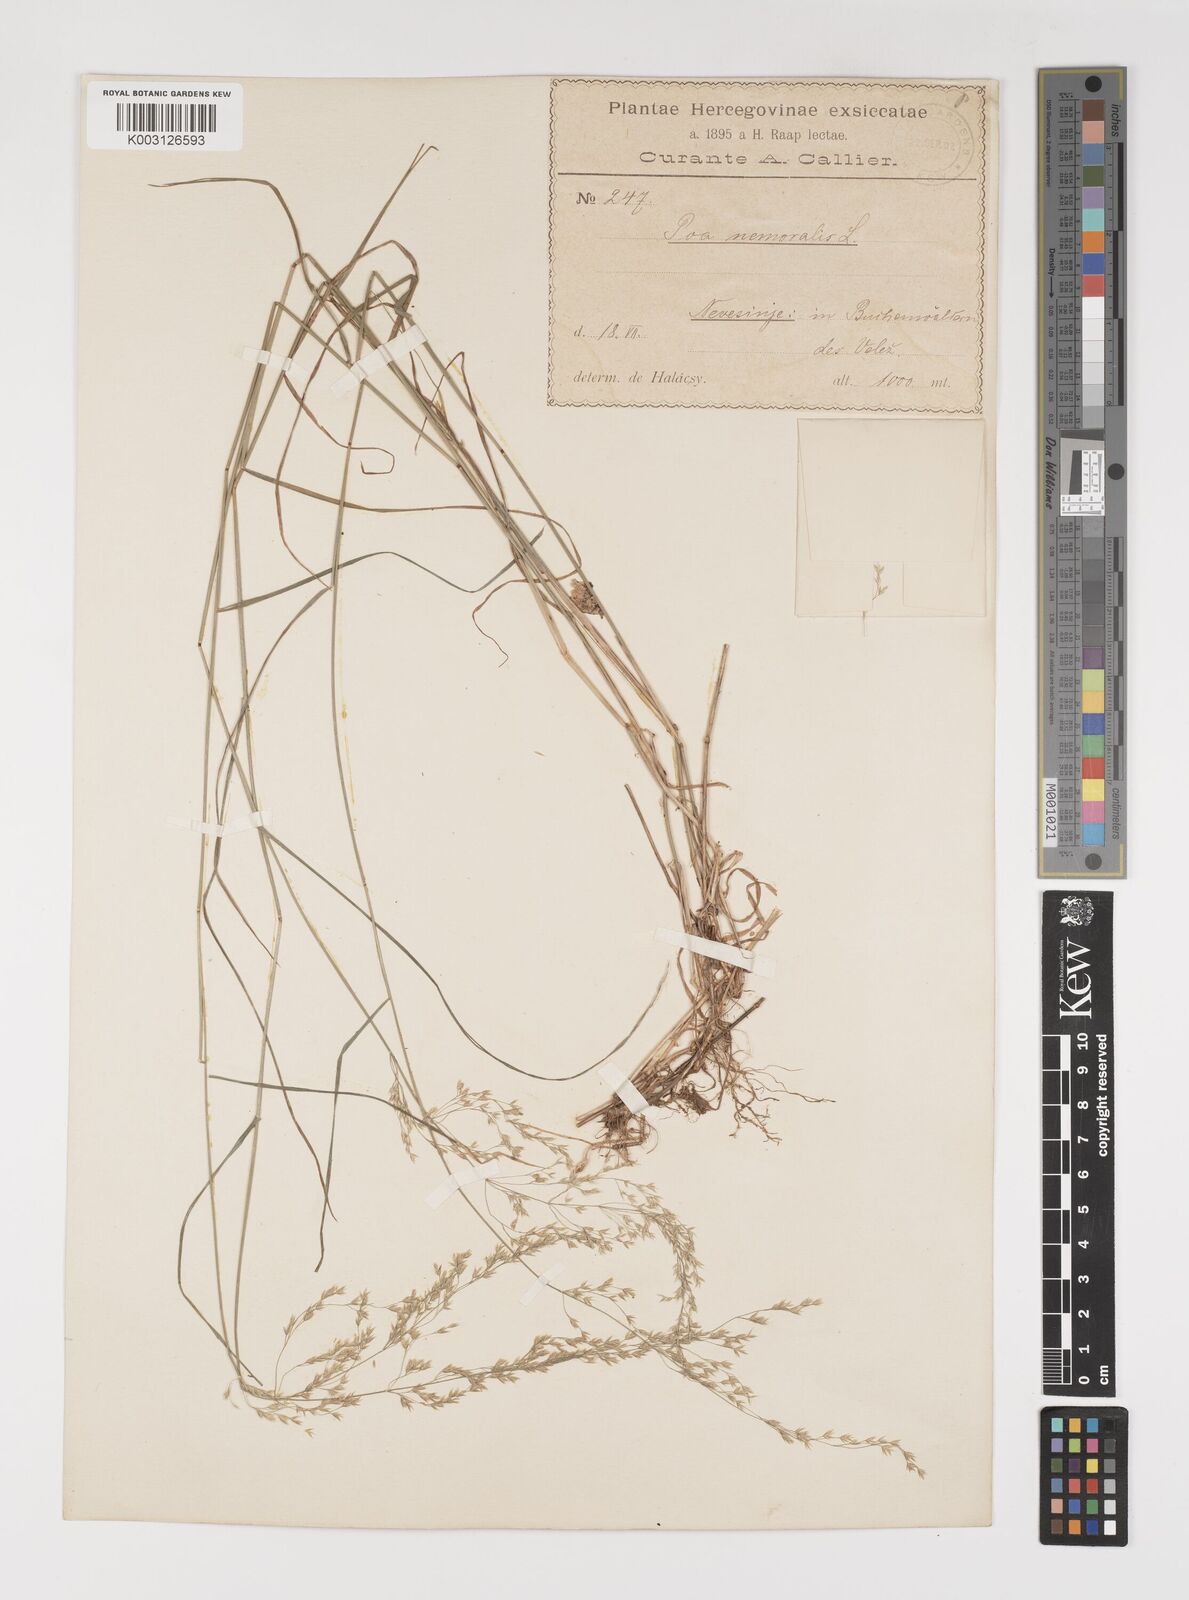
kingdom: Plantae
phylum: Tracheophyta
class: Liliopsida
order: Poales
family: Poaceae
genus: Poa
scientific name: Poa nemoralis
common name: Wood bluegrass
